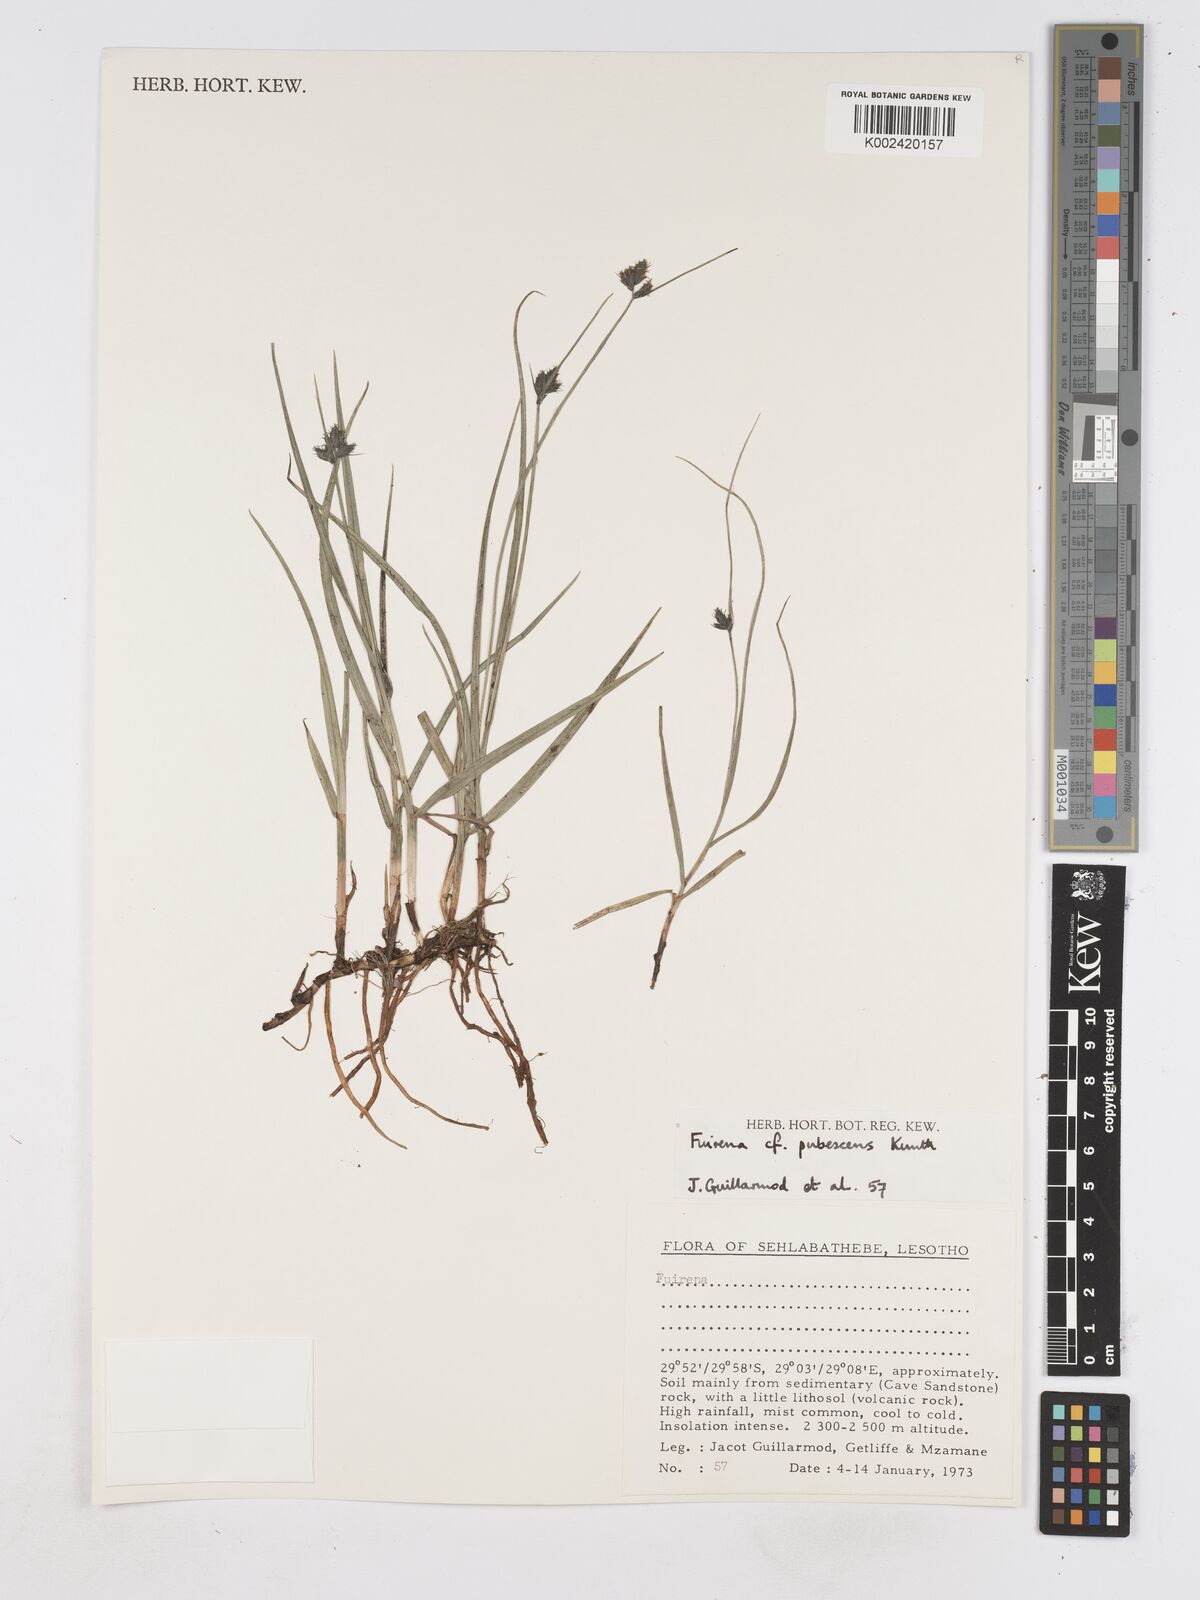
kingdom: Plantae
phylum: Tracheophyta
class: Liliopsida
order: Poales
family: Cyperaceae
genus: Fuirena
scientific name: Fuirena pubescens
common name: Hairy sedge
